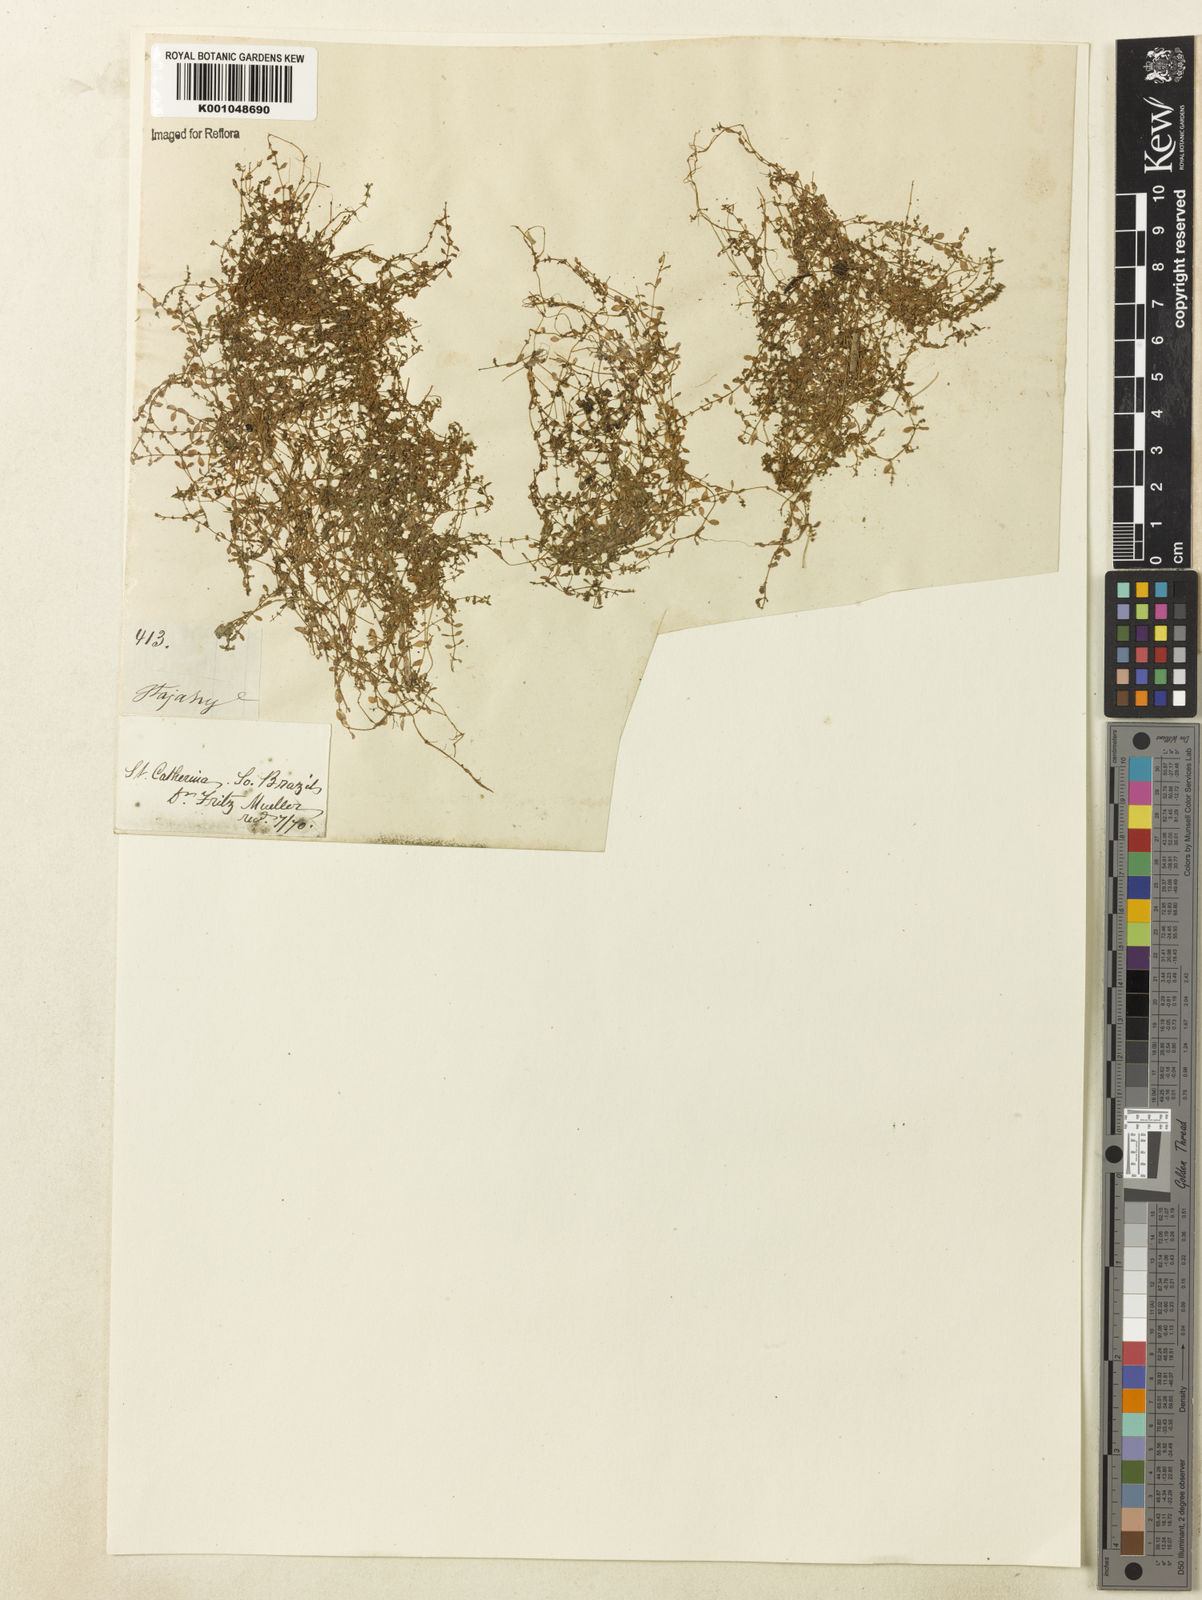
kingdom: Plantae
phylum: Tracheophyta
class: Magnoliopsida
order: Lamiales
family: Plantaginaceae
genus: Callitriche
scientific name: Callitriche peploides
